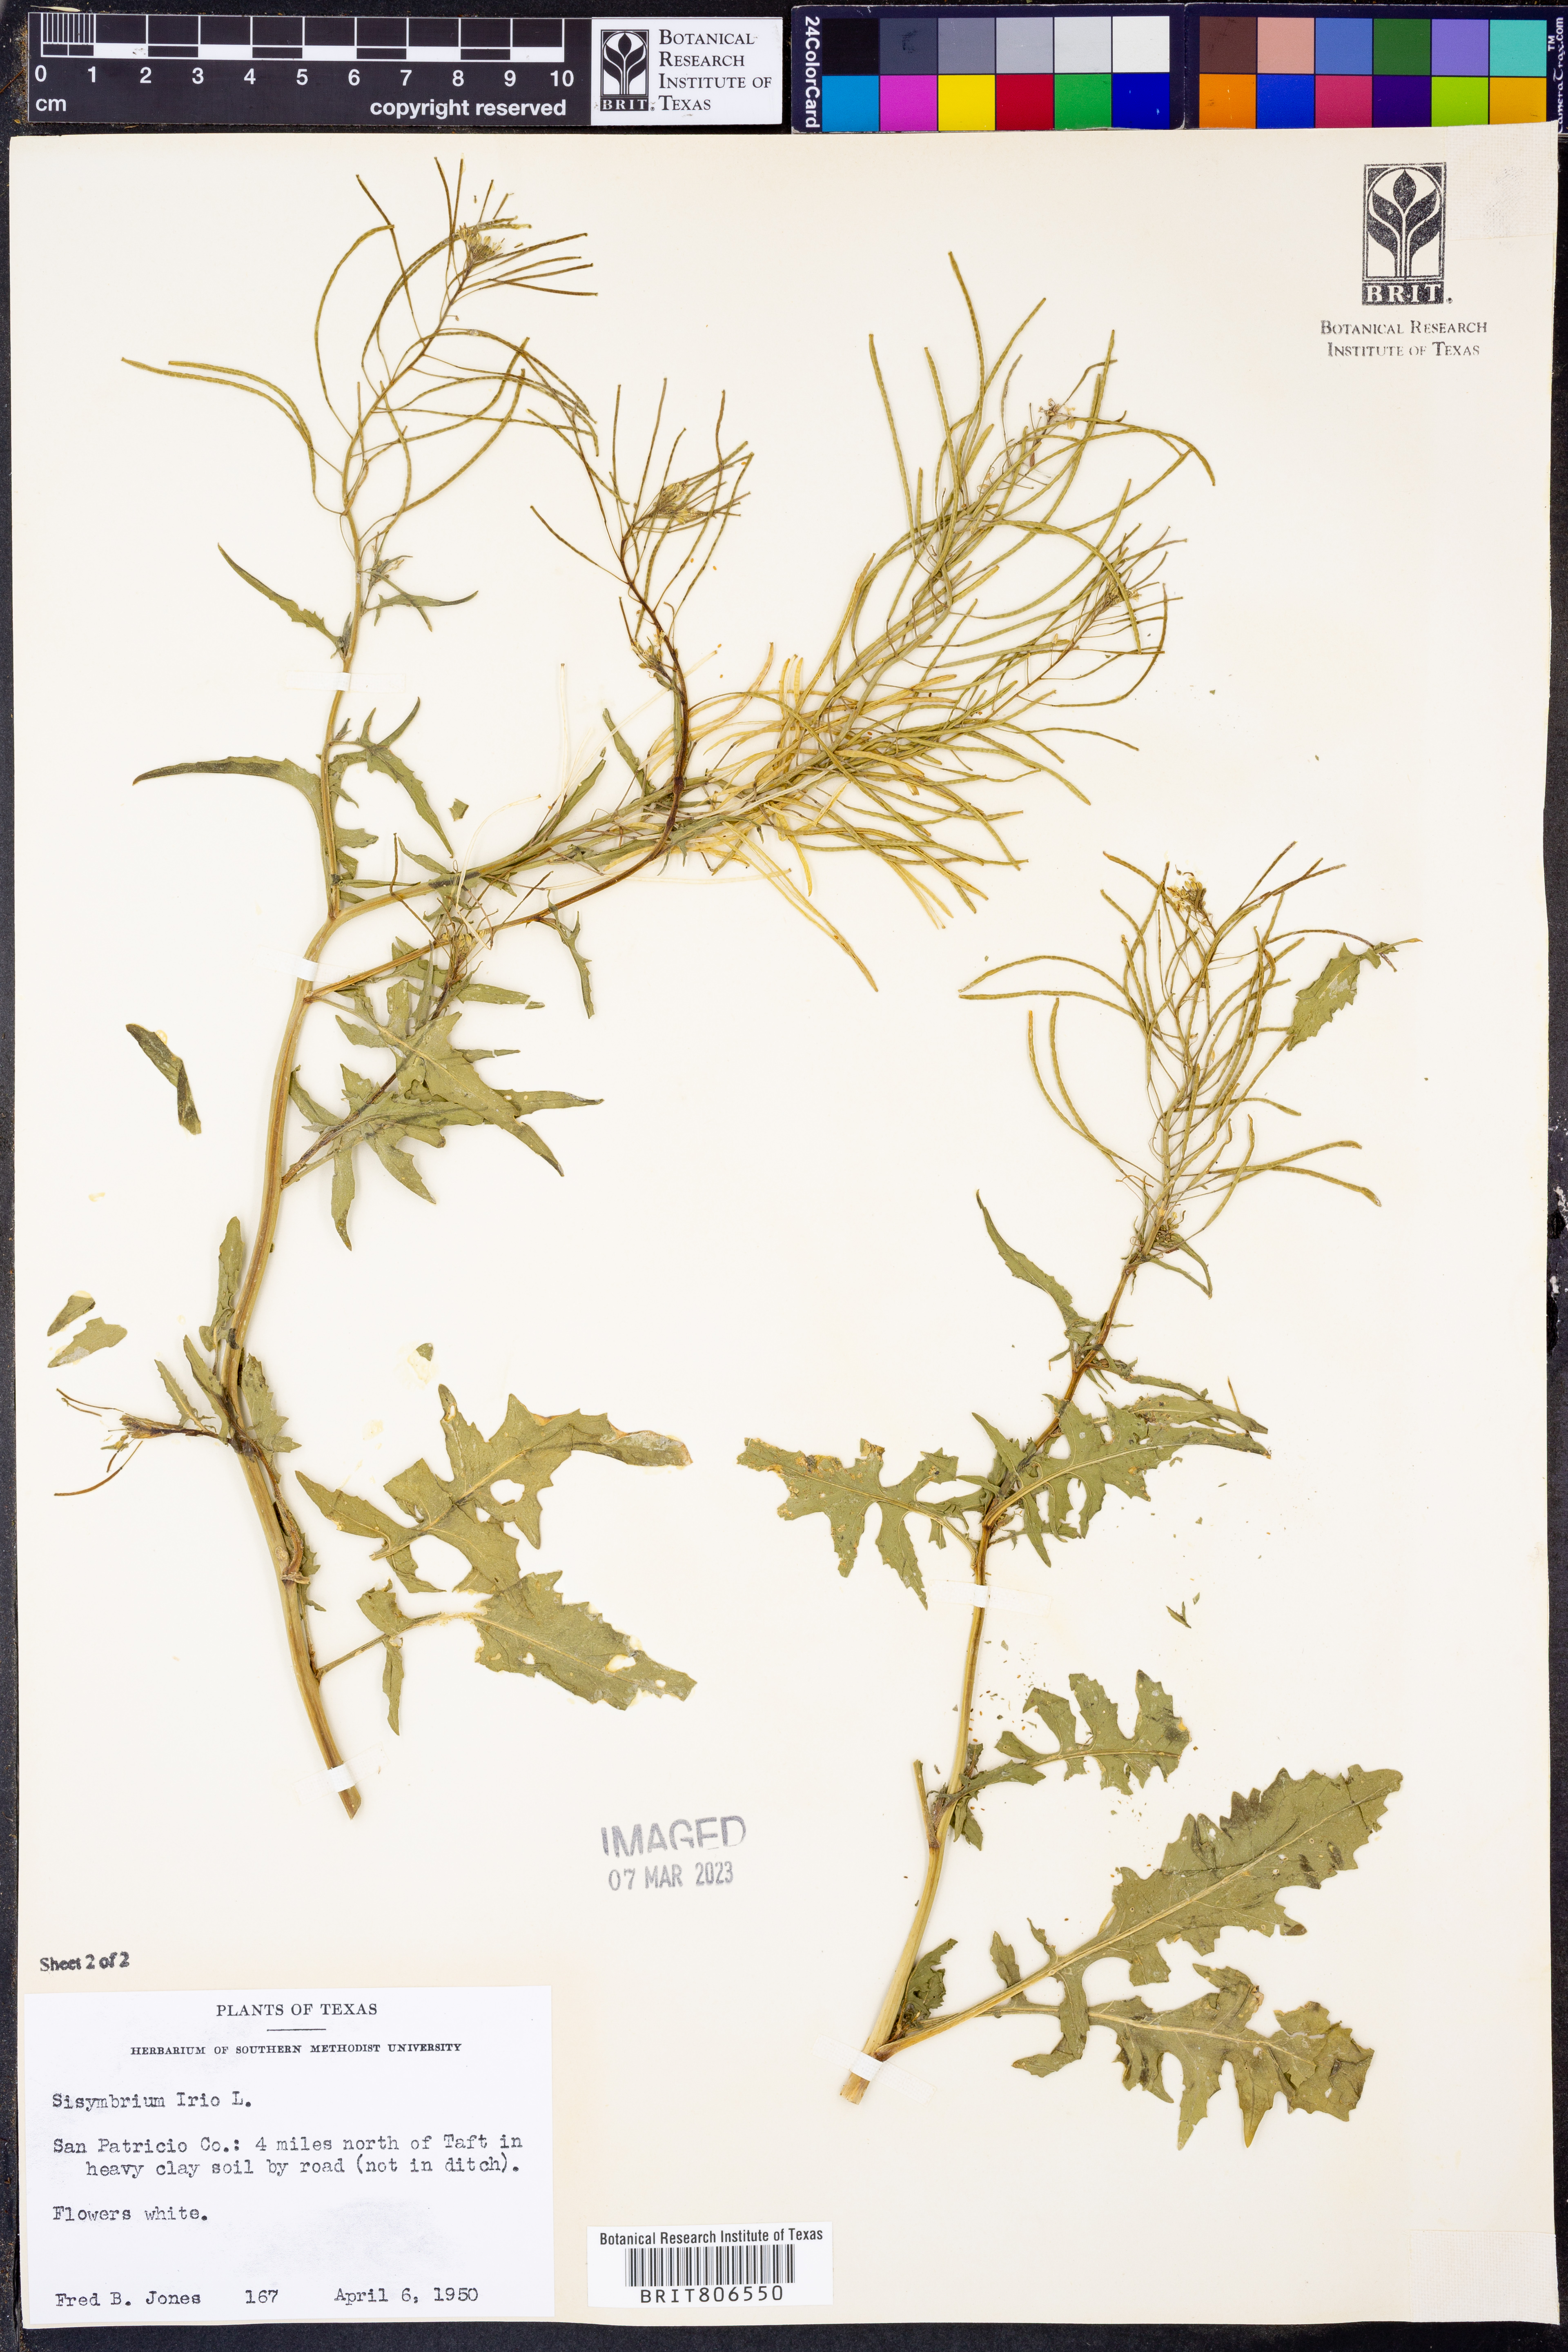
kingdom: Plantae
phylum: Tracheophyta
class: Magnoliopsida
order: Brassicales
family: Brassicaceae
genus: Sisymbrium
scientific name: Sisymbrium irio
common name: London rocket
